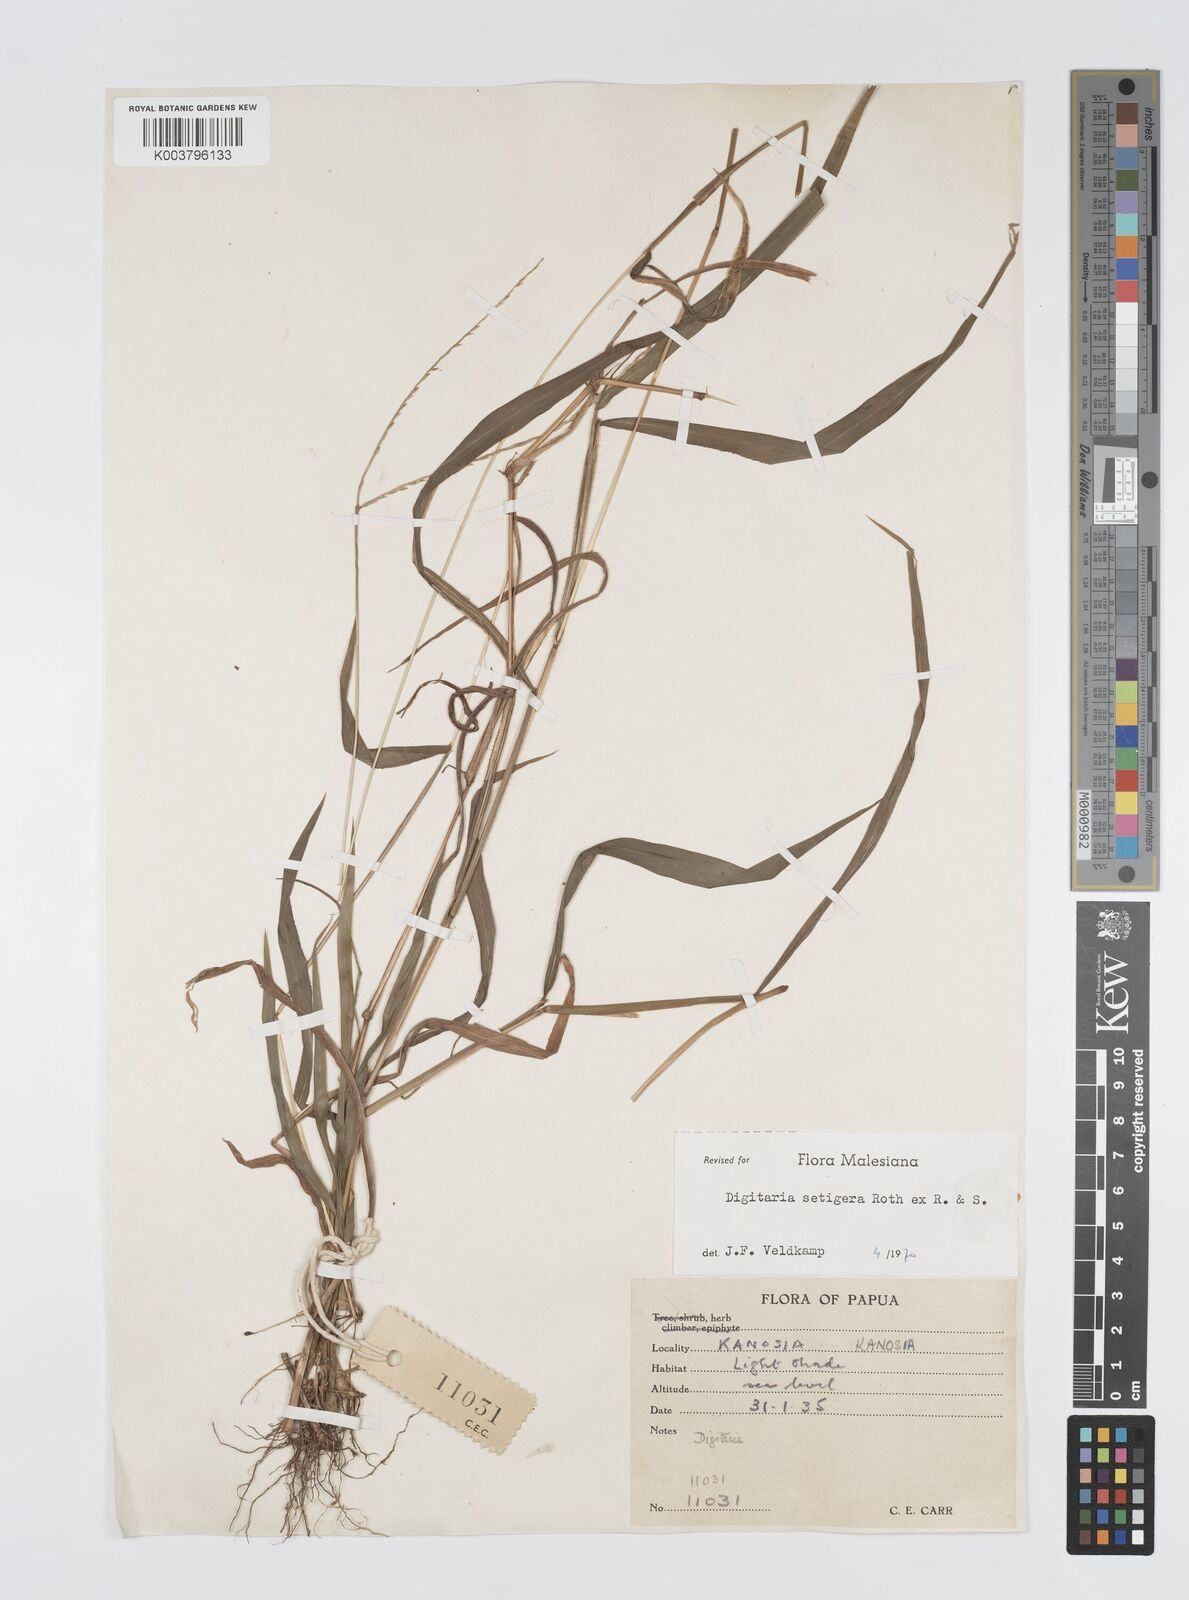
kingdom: Plantae
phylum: Tracheophyta
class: Liliopsida
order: Poales
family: Poaceae
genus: Digitaria
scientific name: Digitaria setigera
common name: East indian crabgrass
